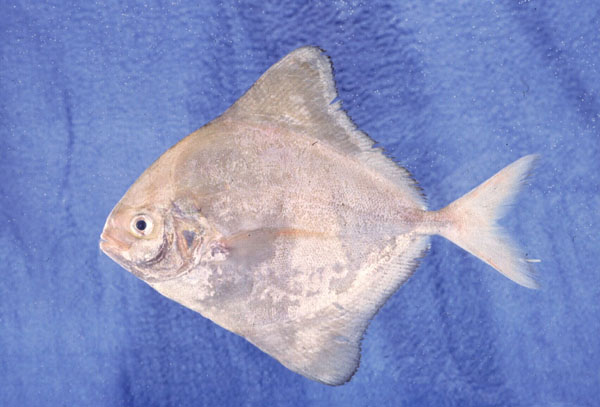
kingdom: Animalia
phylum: Chordata
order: Perciformes
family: Carangidae
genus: Parastromateus
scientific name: Parastromateus niger
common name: Black pomfret
